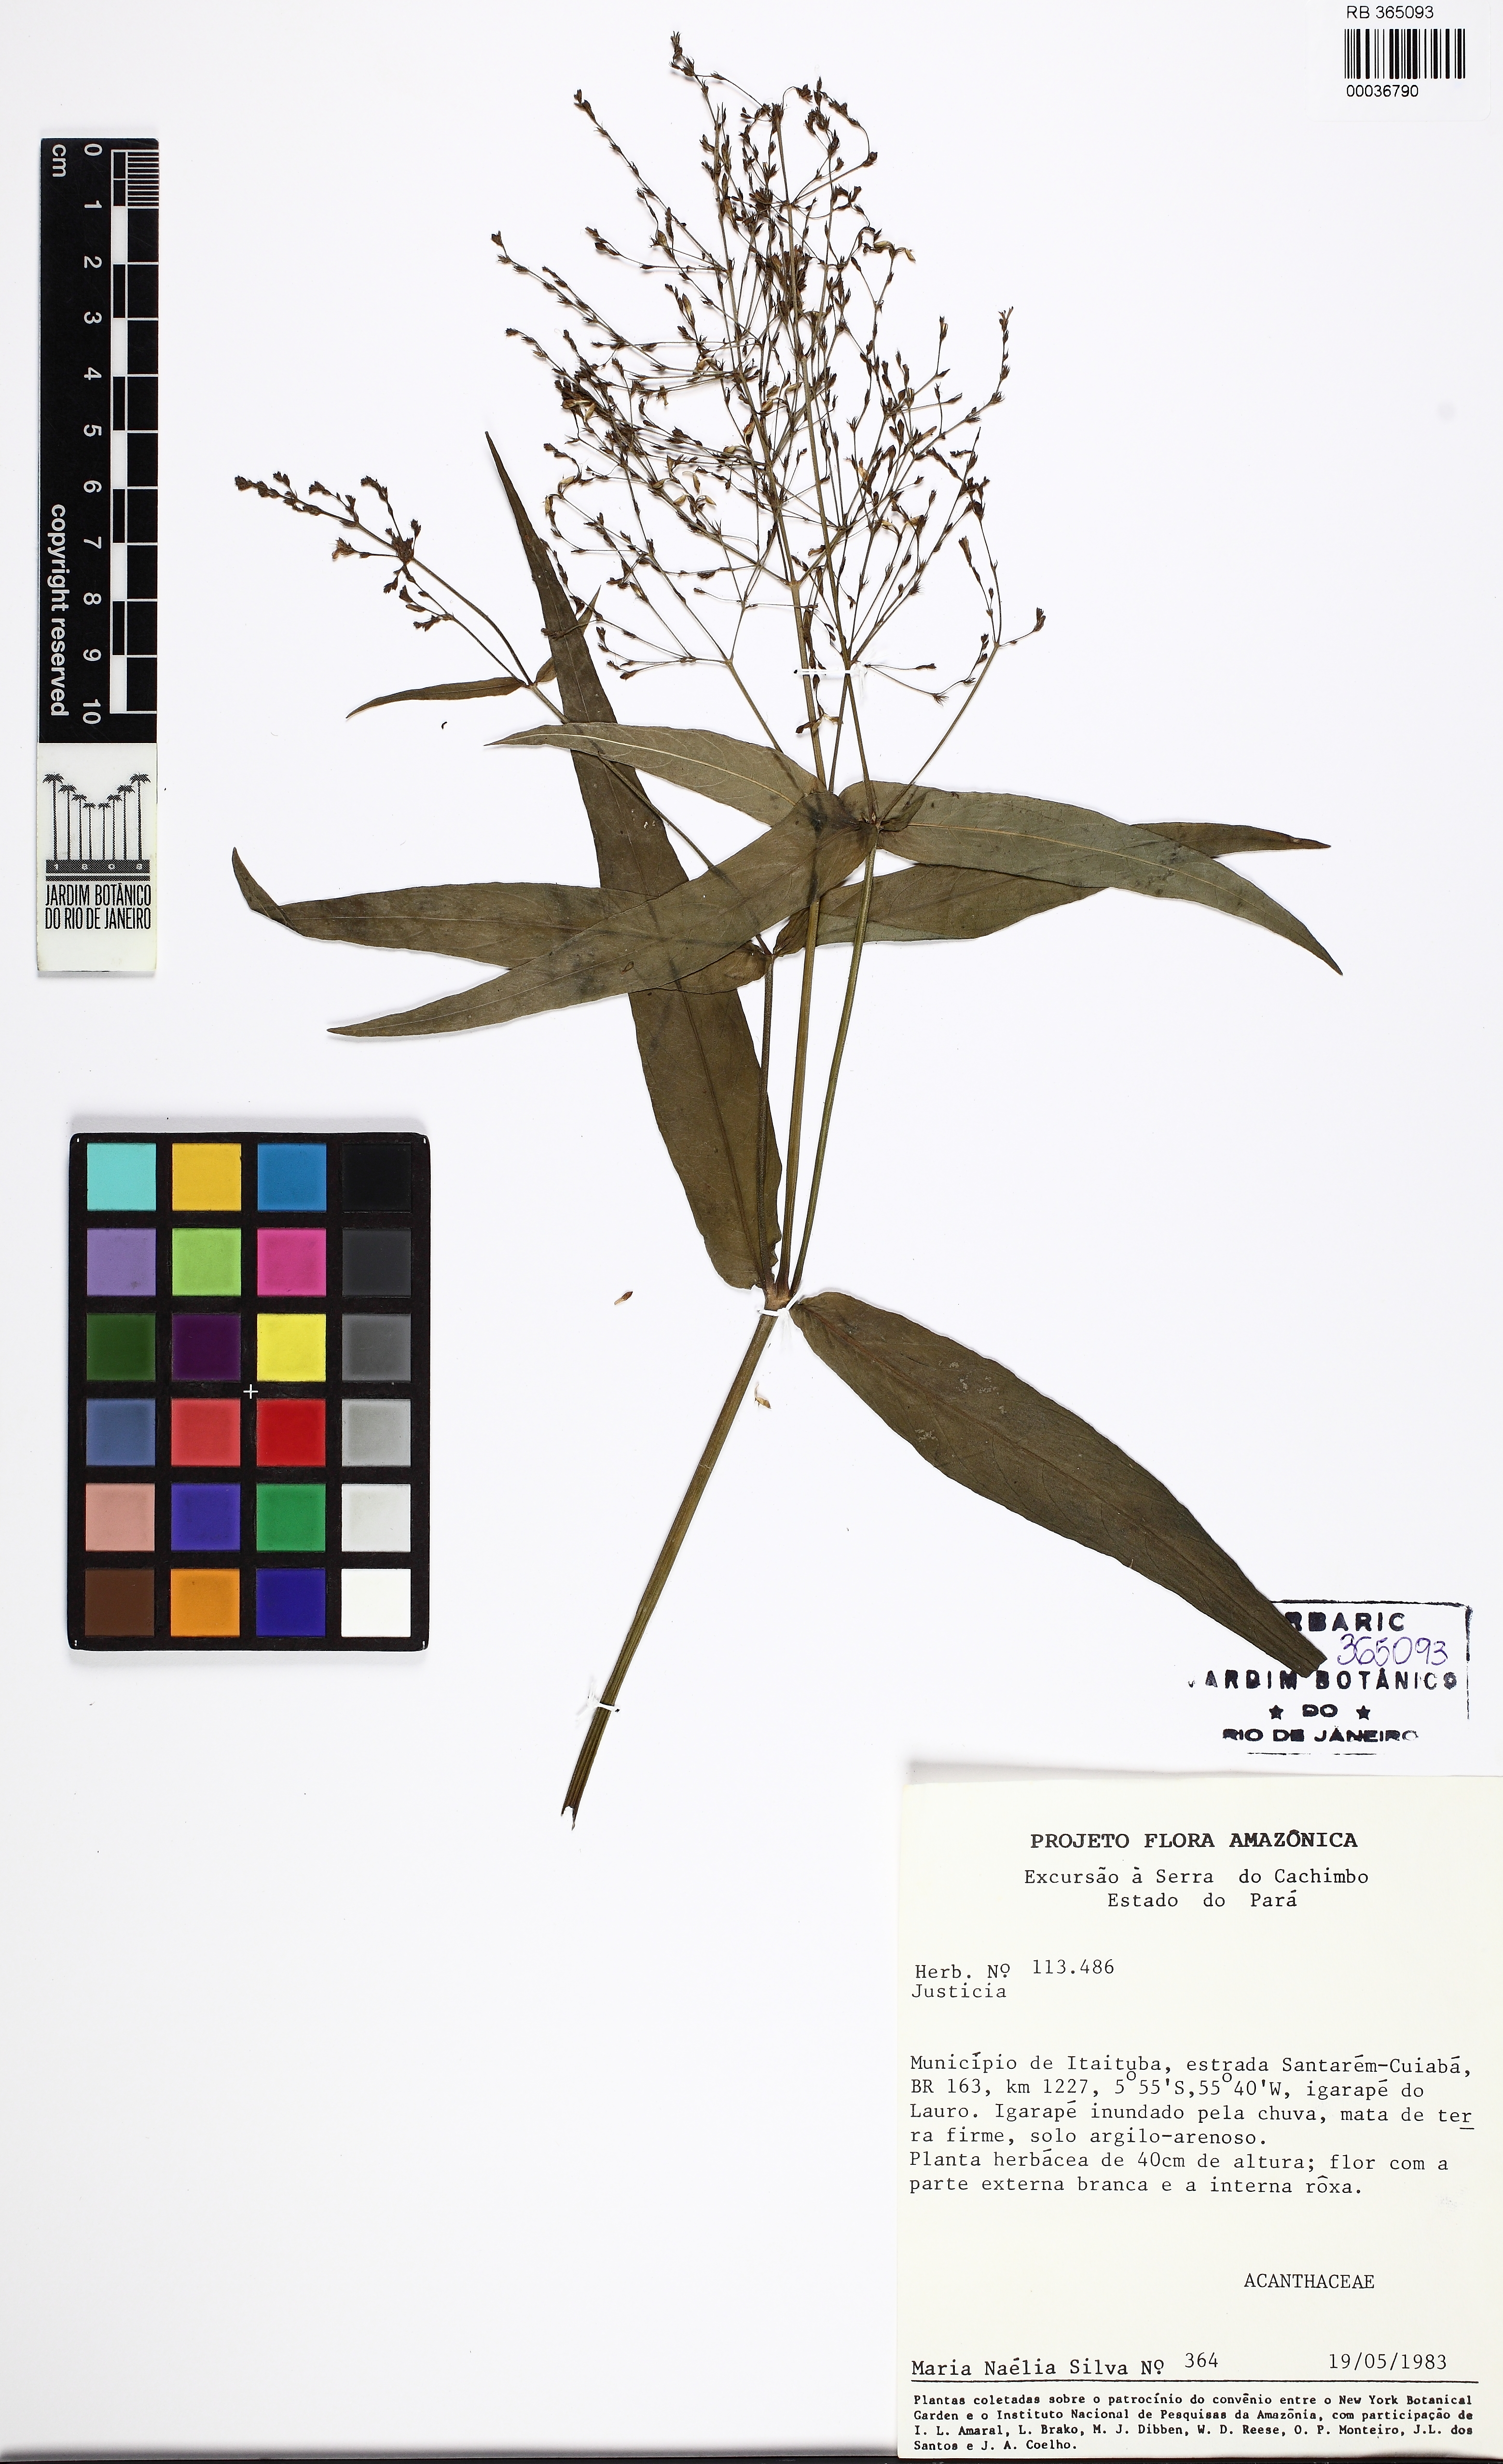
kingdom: Plantae
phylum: Tracheophyta
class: Magnoliopsida
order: Lamiales
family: Acanthaceae
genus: Dianthera
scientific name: Dianthera comata
